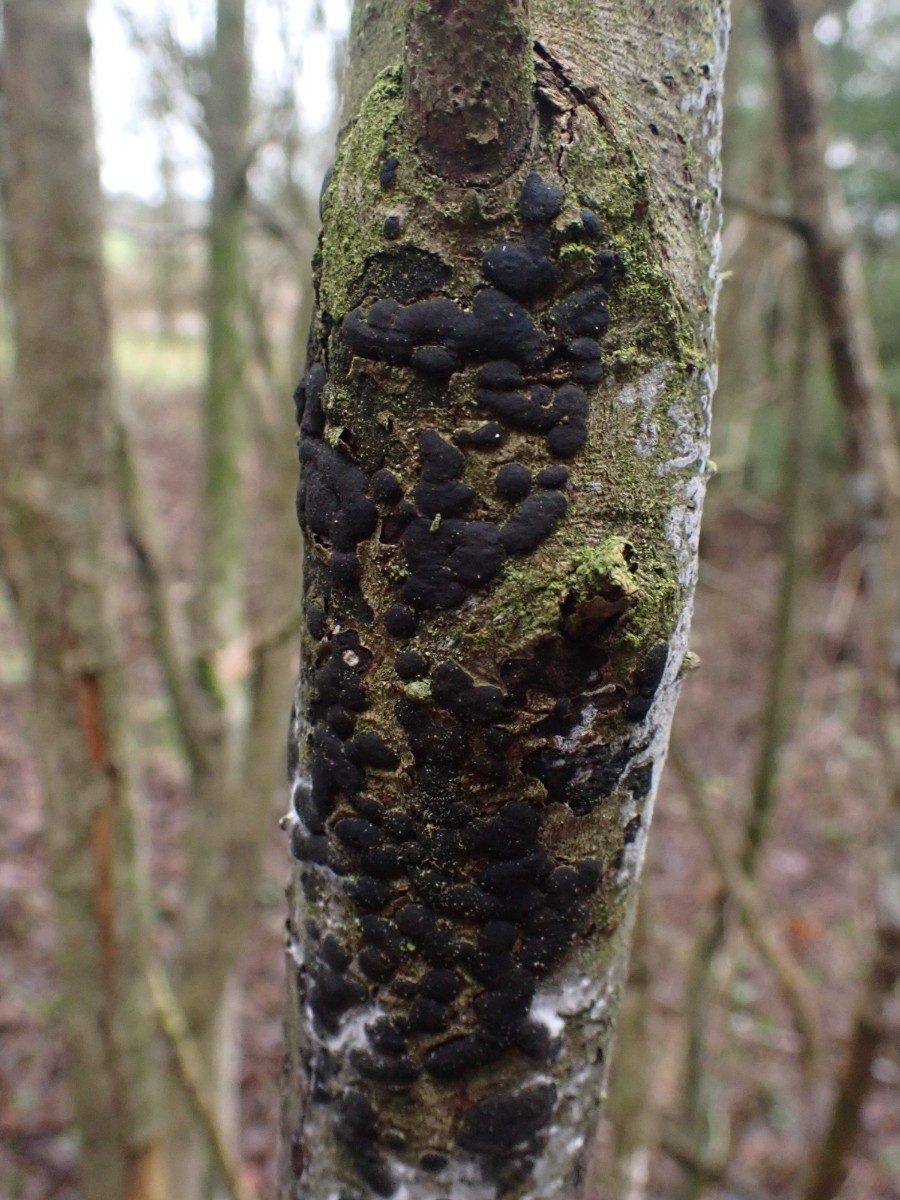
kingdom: Fungi
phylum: Ascomycota
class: Sordariomycetes
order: Xylariales
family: Diatrypaceae
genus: Diatrype
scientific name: Diatrype bullata
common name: pile-kulskorpe
